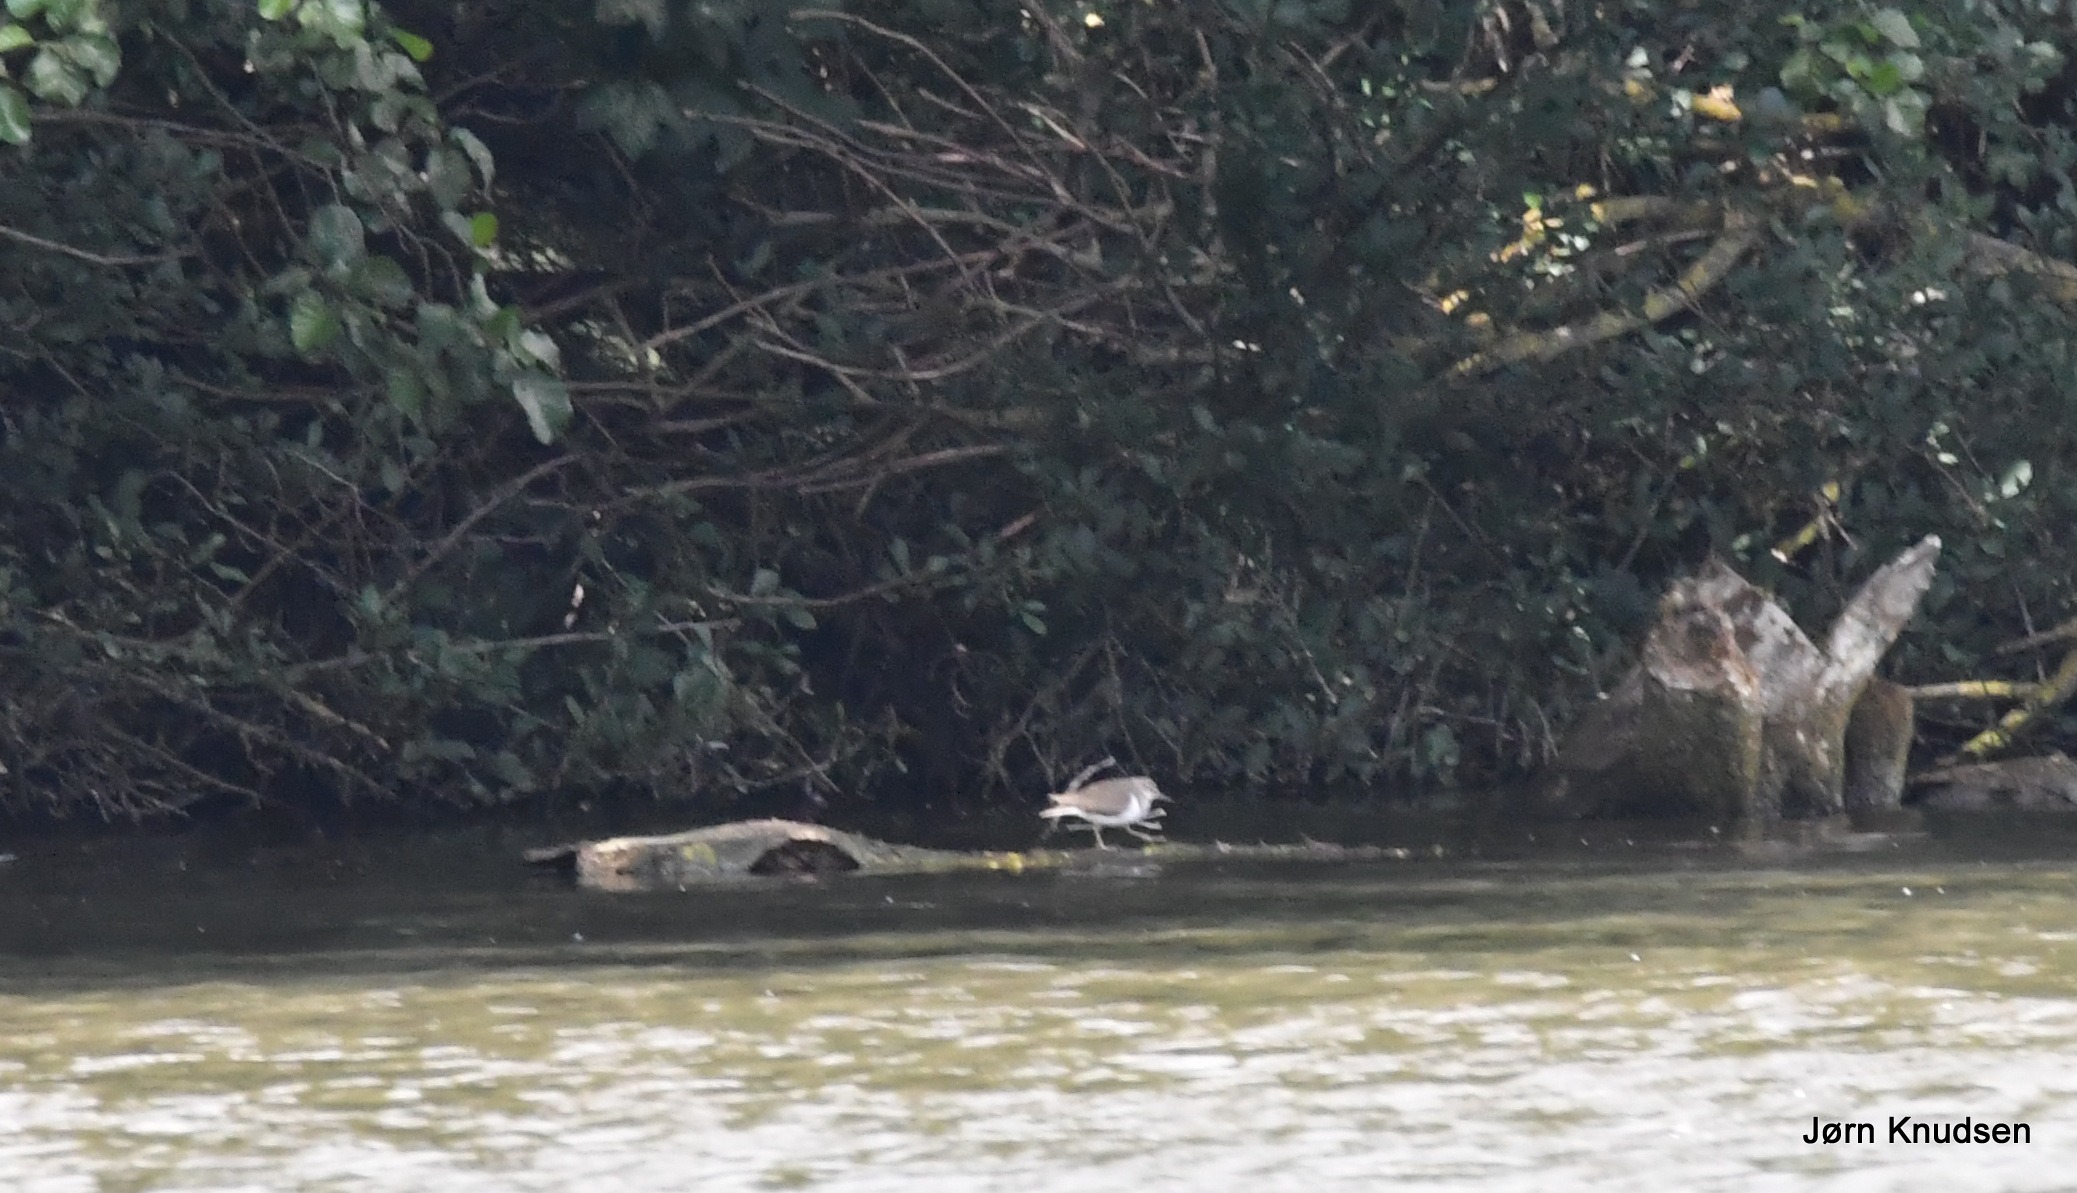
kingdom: Animalia
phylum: Chordata
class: Aves
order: Charadriiformes
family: Scolopacidae
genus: Actitis
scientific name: Actitis hypoleucos
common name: Mudderklire
